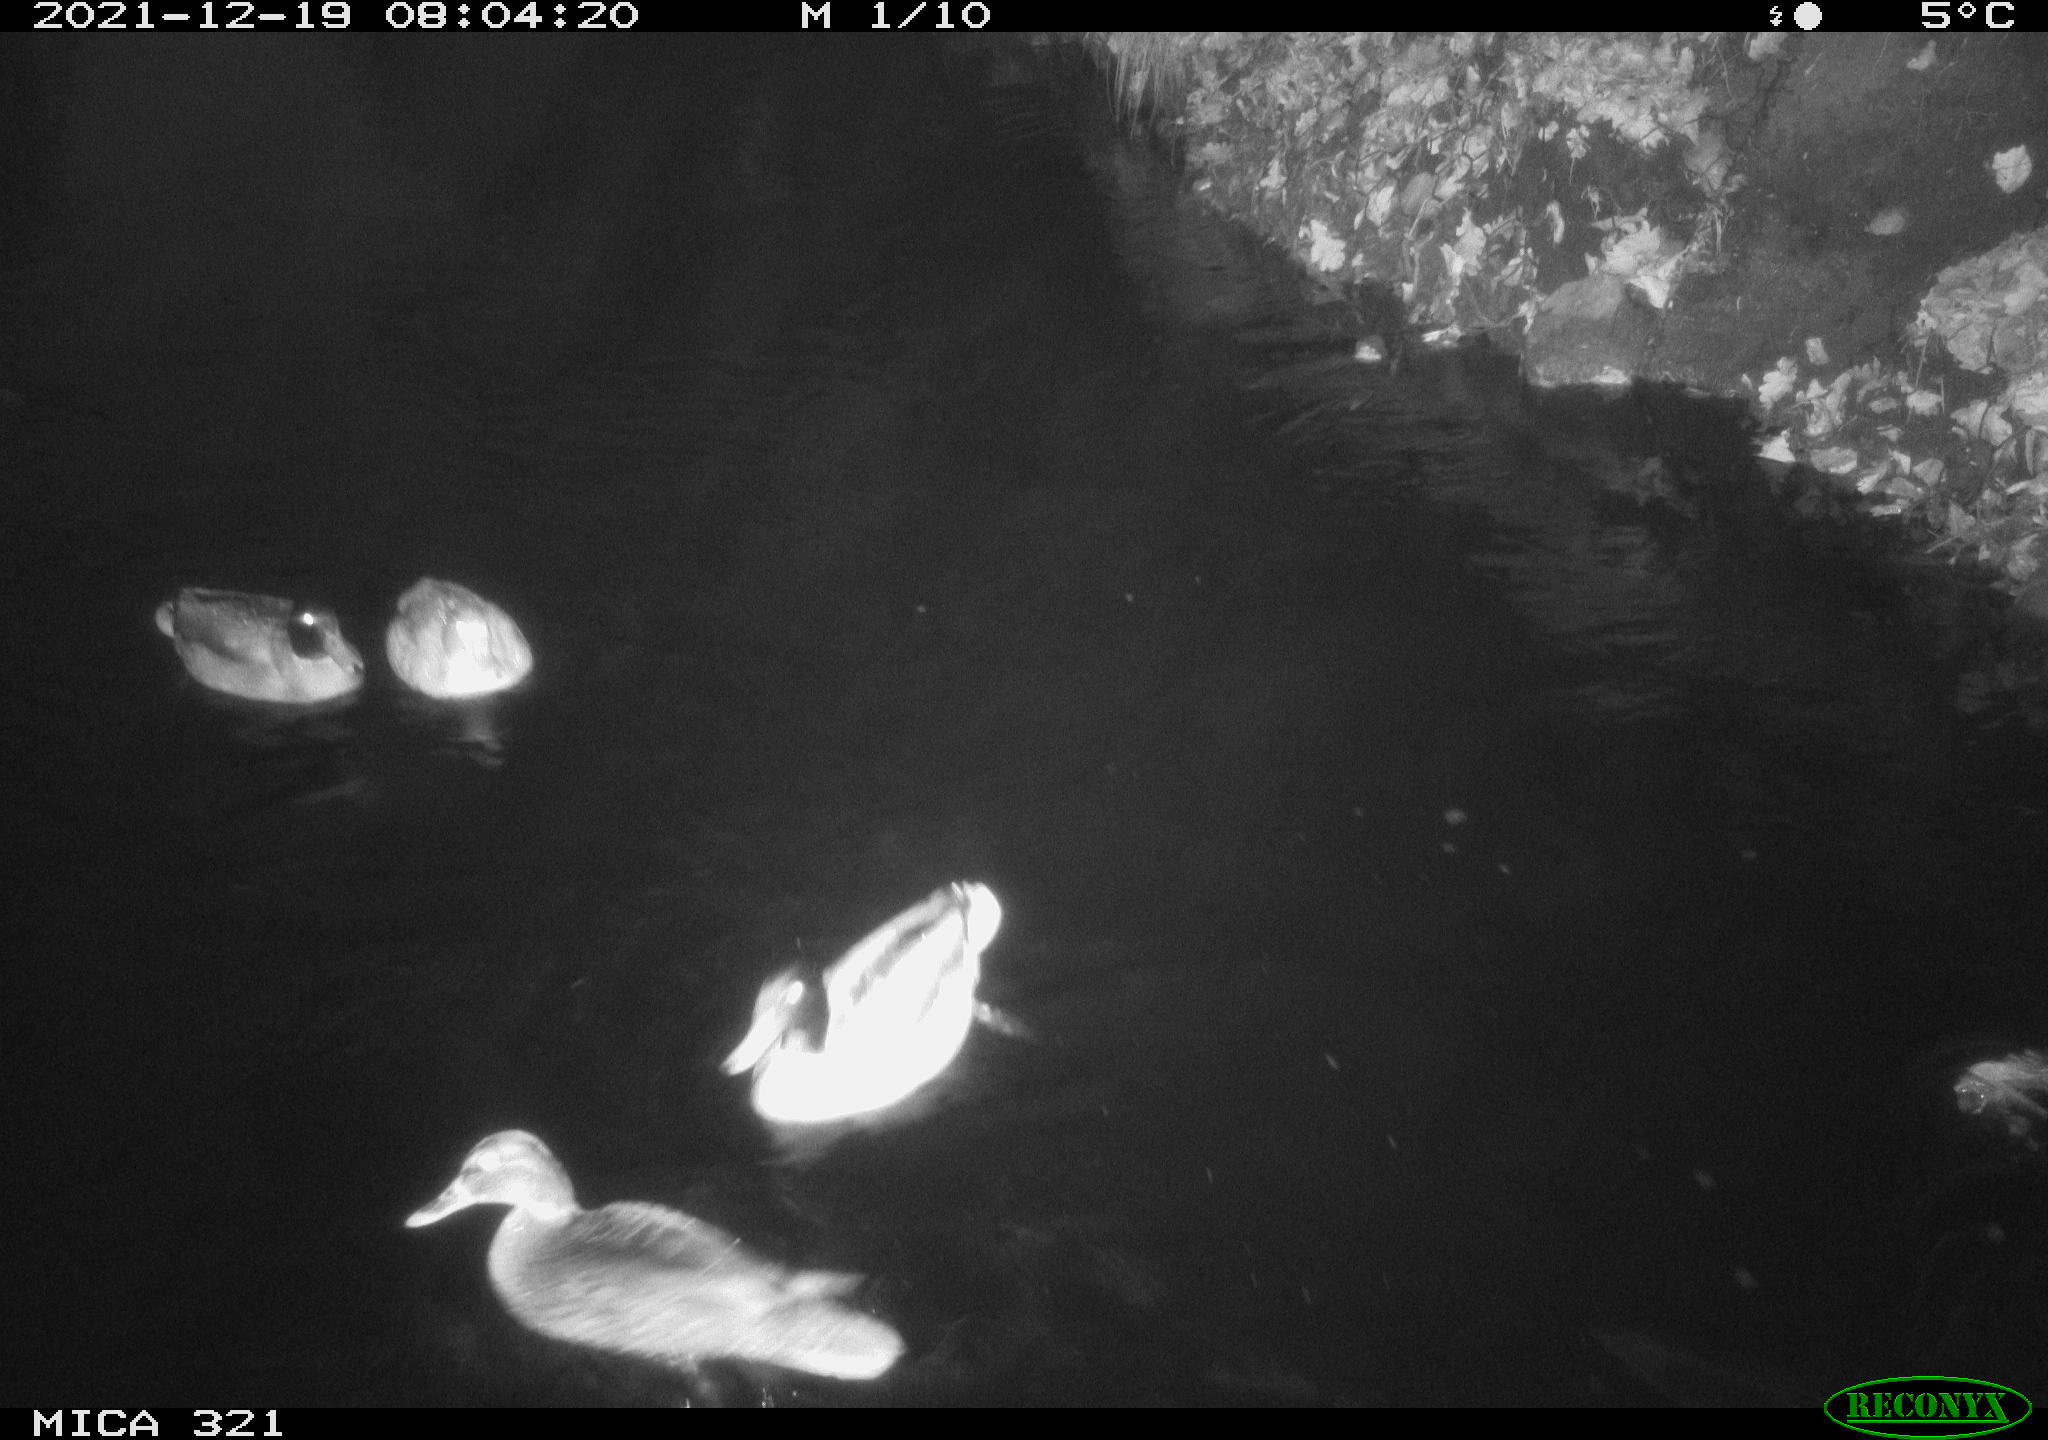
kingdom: Animalia
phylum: Chordata
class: Aves
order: Anseriformes
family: Anatidae
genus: Anas
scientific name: Anas
